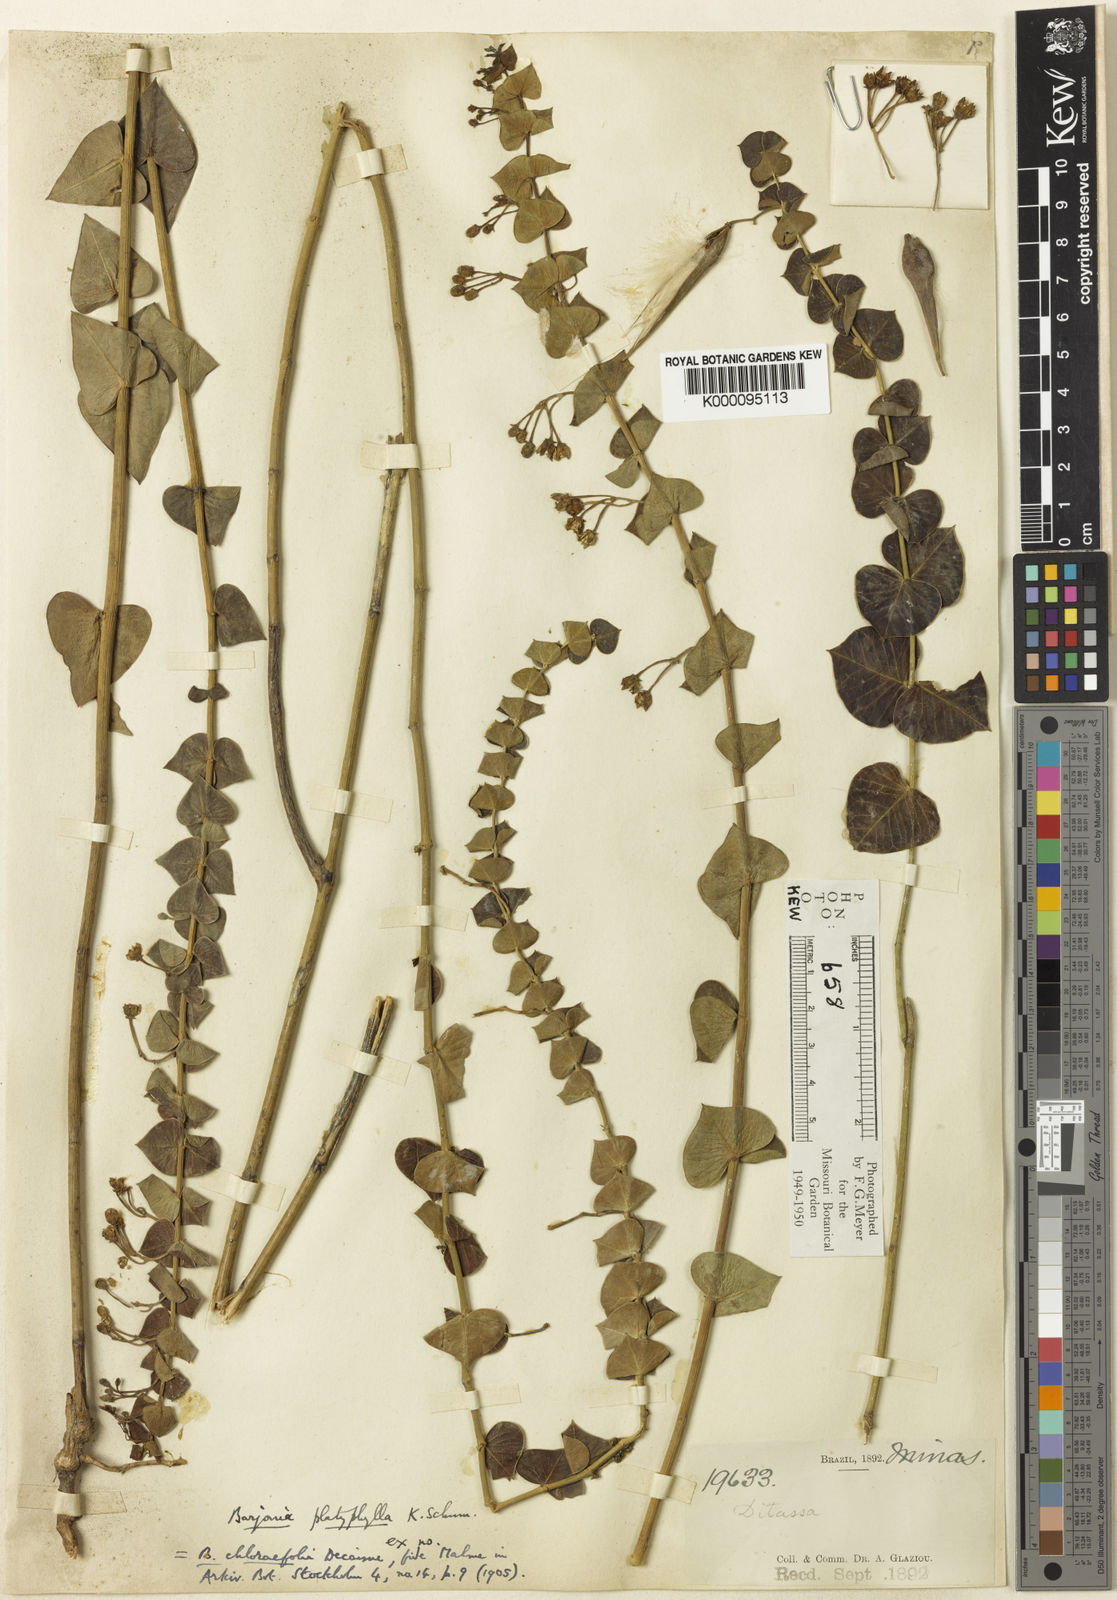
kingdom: Plantae
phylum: Tracheophyta
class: Magnoliopsida
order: Gentianales
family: Apocynaceae
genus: Barjonia
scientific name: Barjonia chlorifolia
